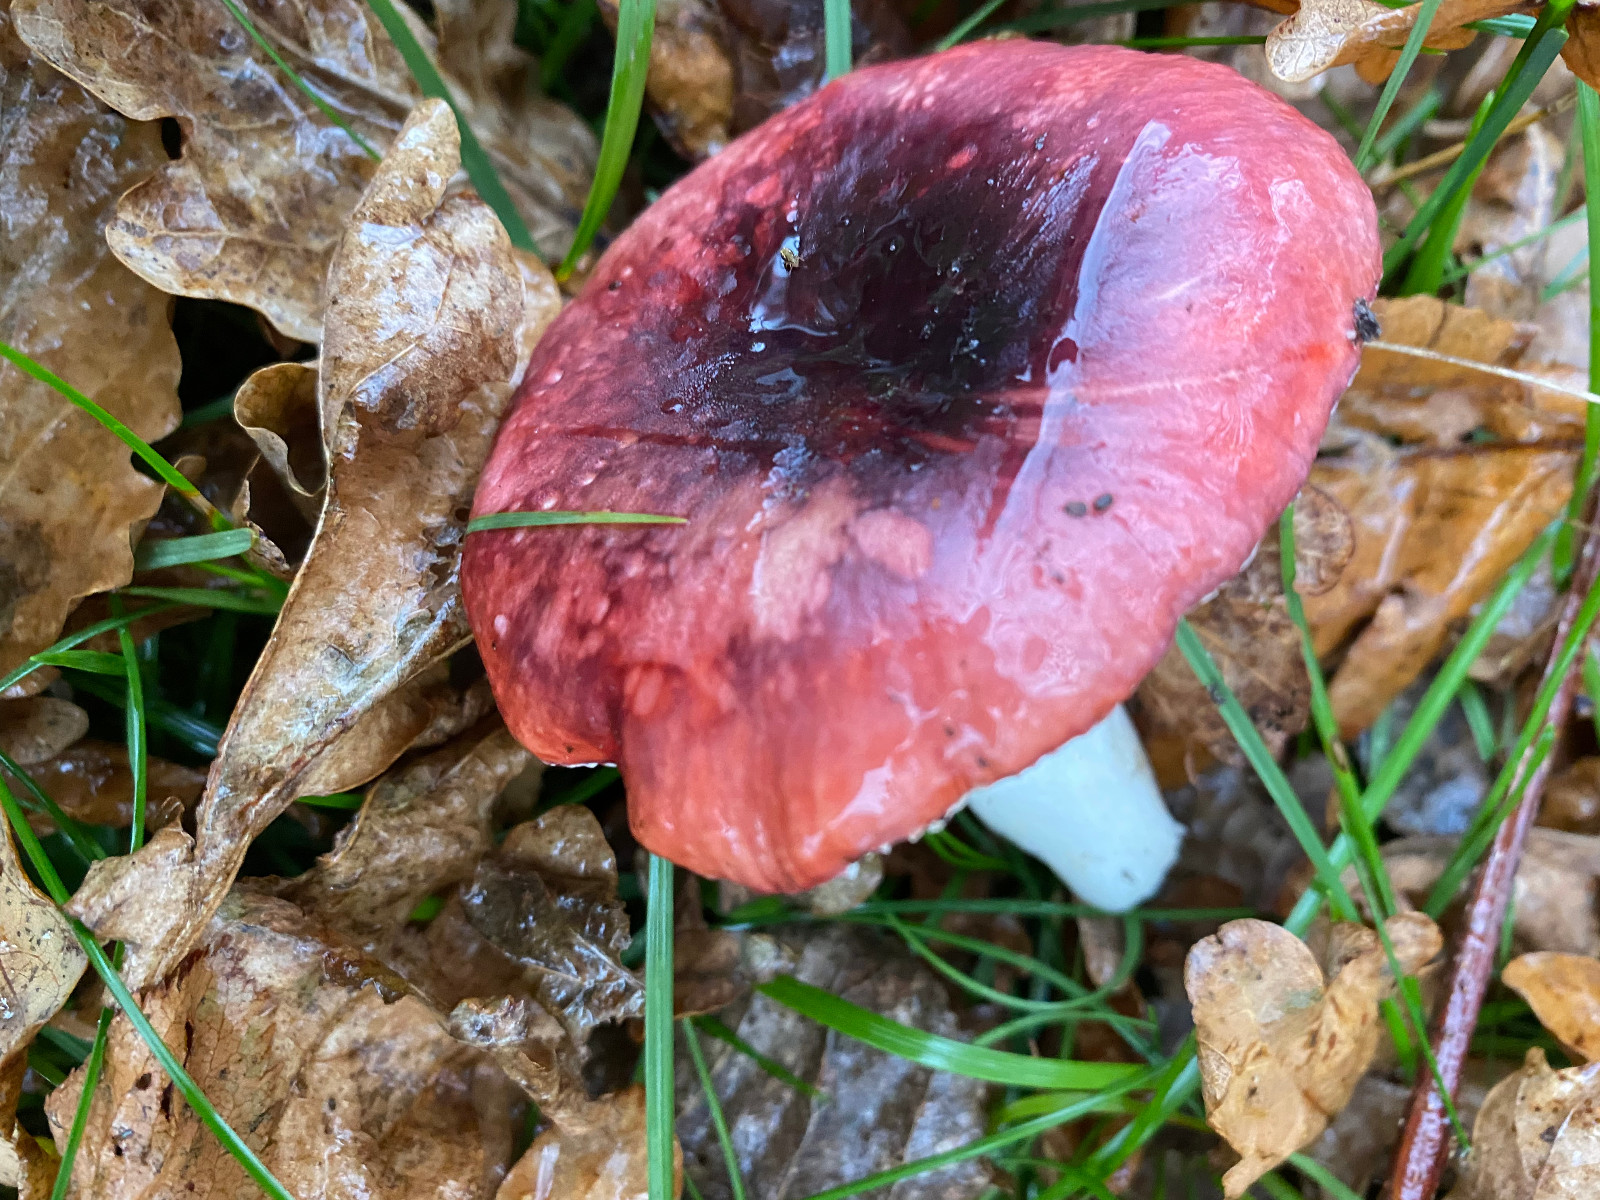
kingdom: Fungi
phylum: Basidiomycota
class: Agaricomycetes
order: Russulales
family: Russulaceae
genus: Russula
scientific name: Russula fragilis
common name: savbladet skørhat
